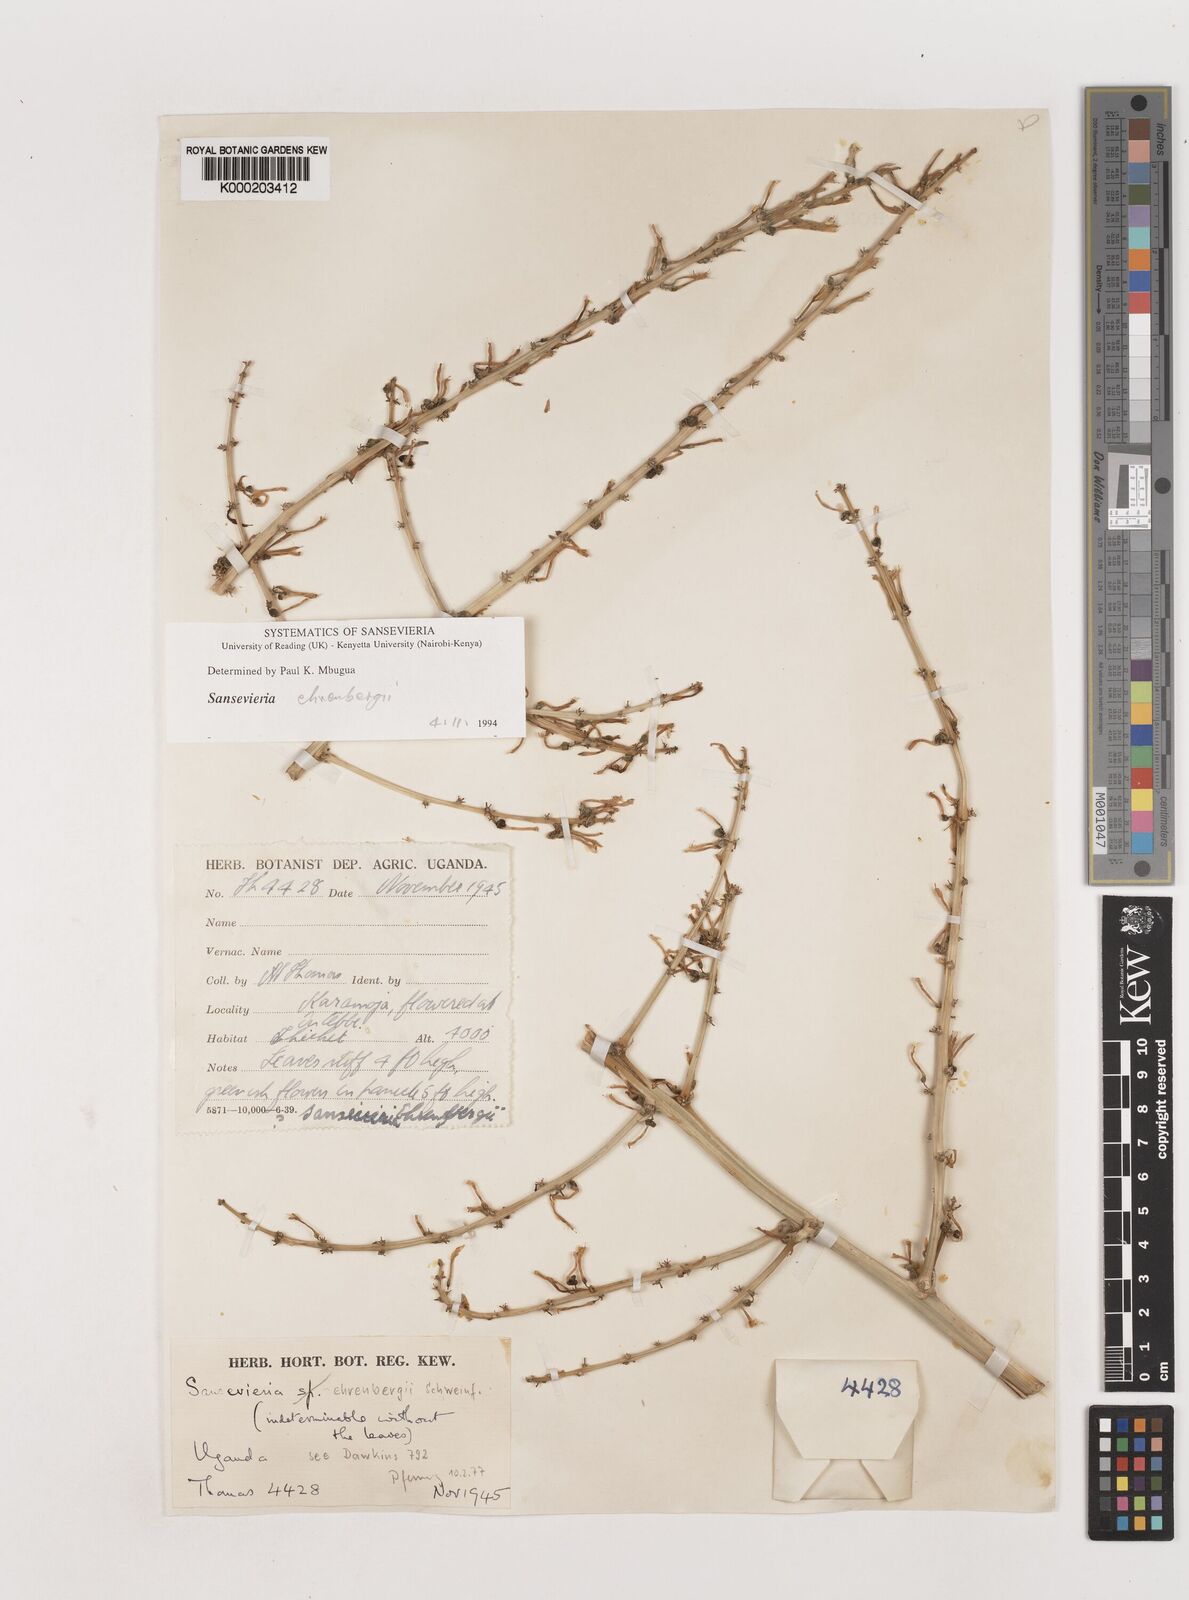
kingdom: Plantae
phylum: Tracheophyta
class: Liliopsida
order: Asparagales
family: Asparagaceae
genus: Dracaena
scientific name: Dracaena hanningtonii
